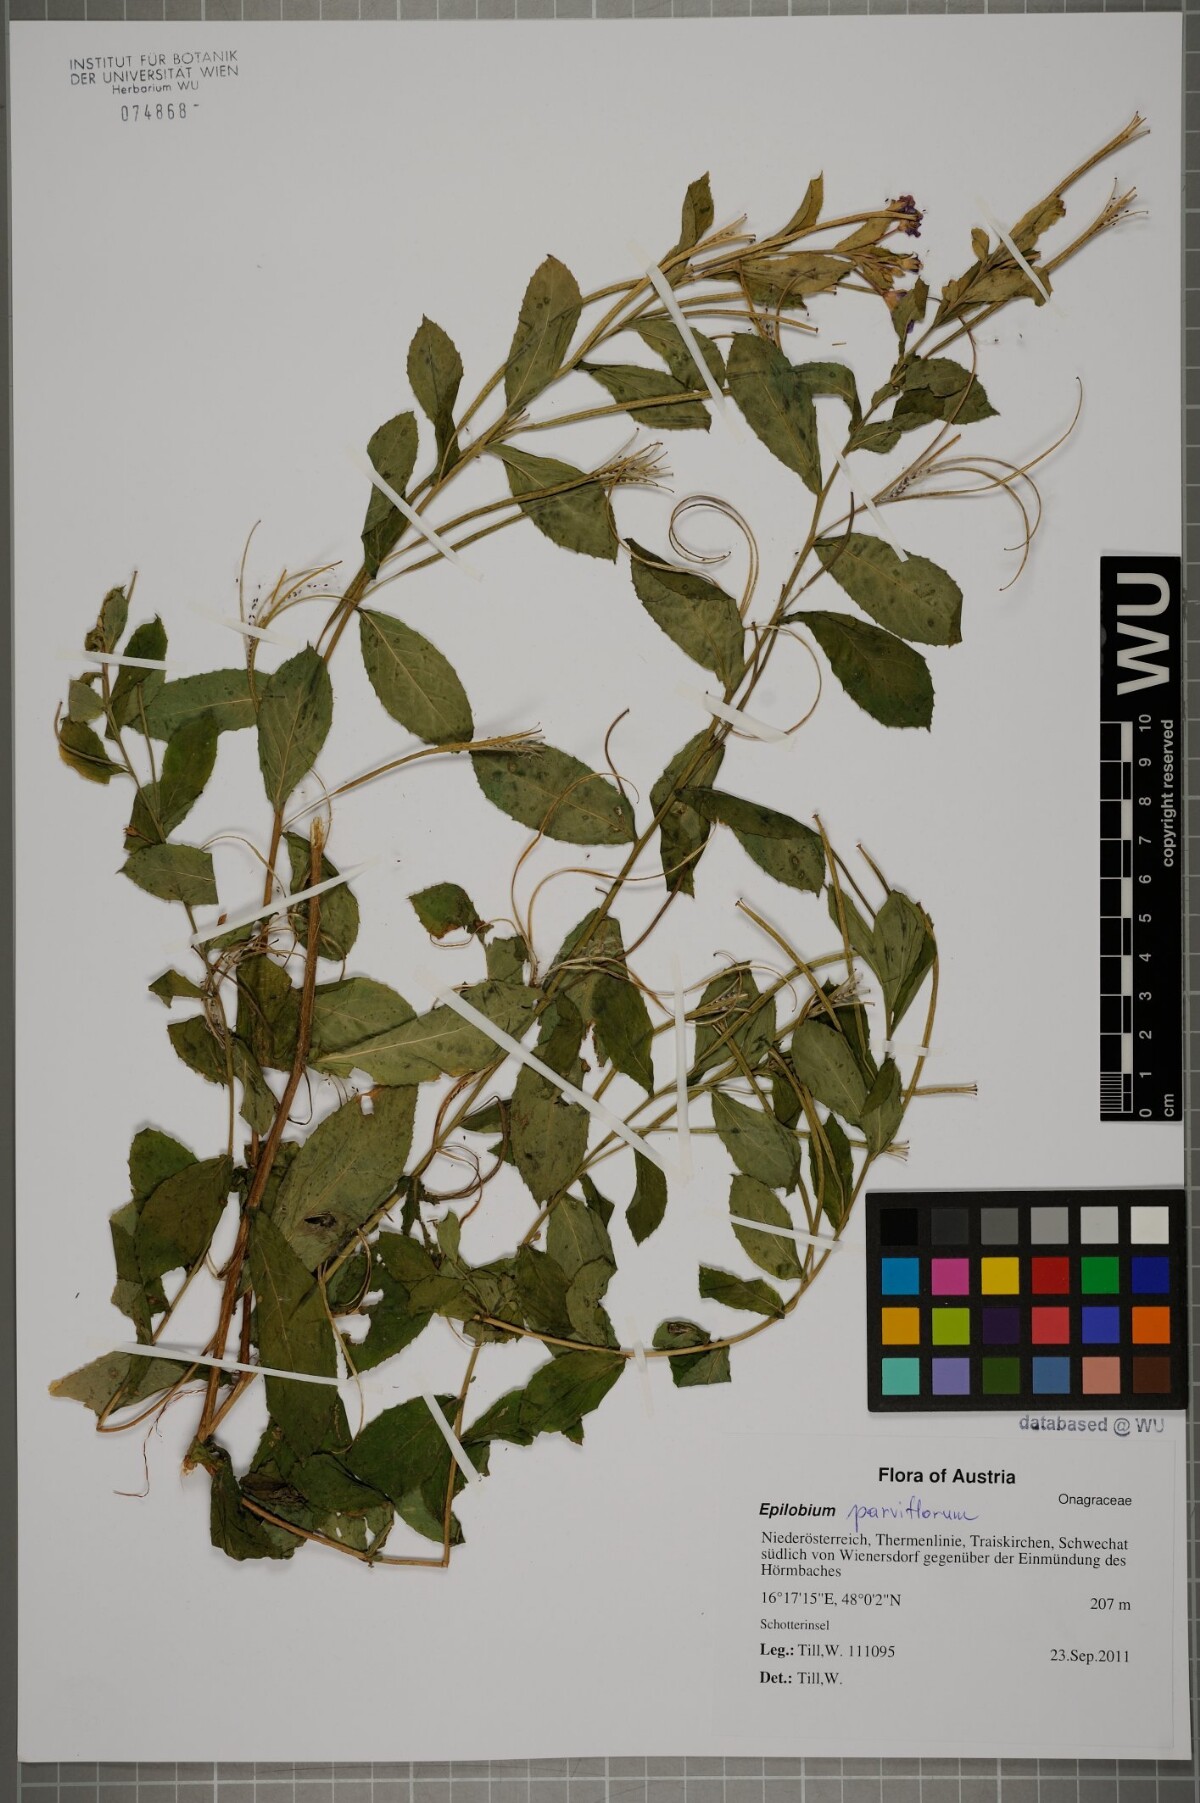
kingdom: Plantae
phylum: Tracheophyta
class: Magnoliopsida
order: Myrtales
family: Onagraceae
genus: Epilobium
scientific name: Epilobium parviflorum
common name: Hoary willowherb
